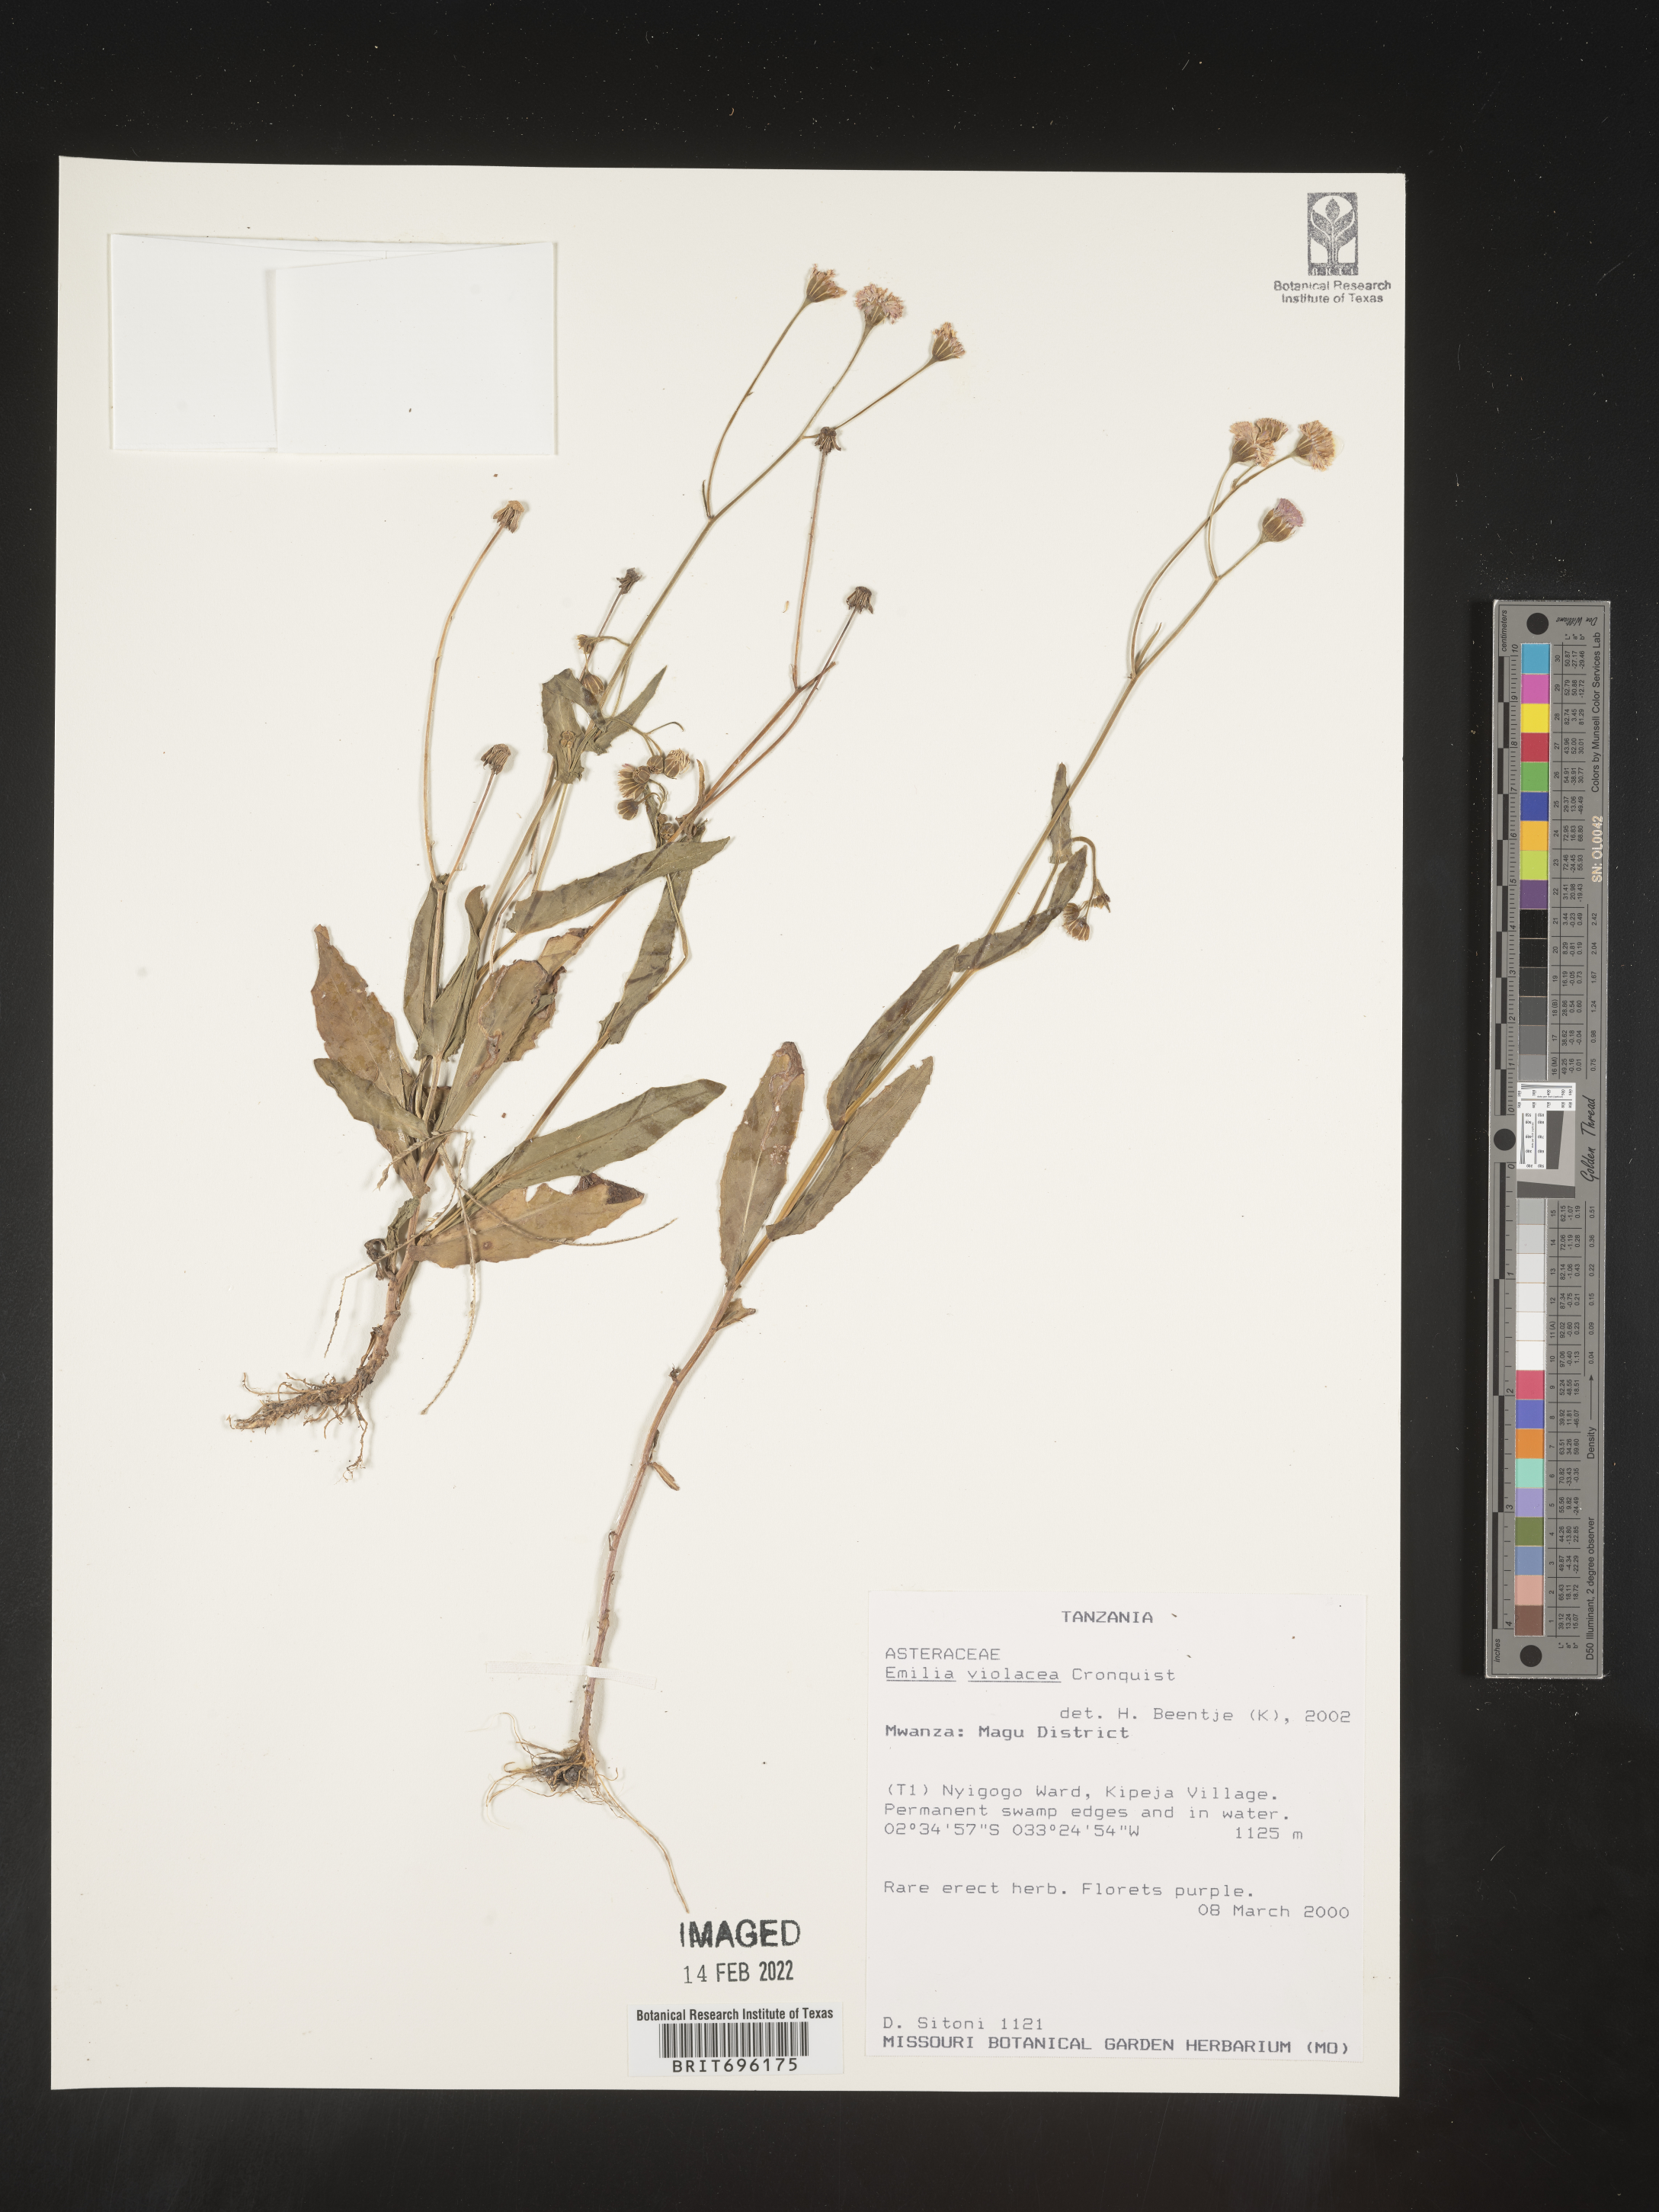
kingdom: Plantae
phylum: Tracheophyta
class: Magnoliopsida
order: Asterales
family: Asteraceae
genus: Emilia
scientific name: Emilia
